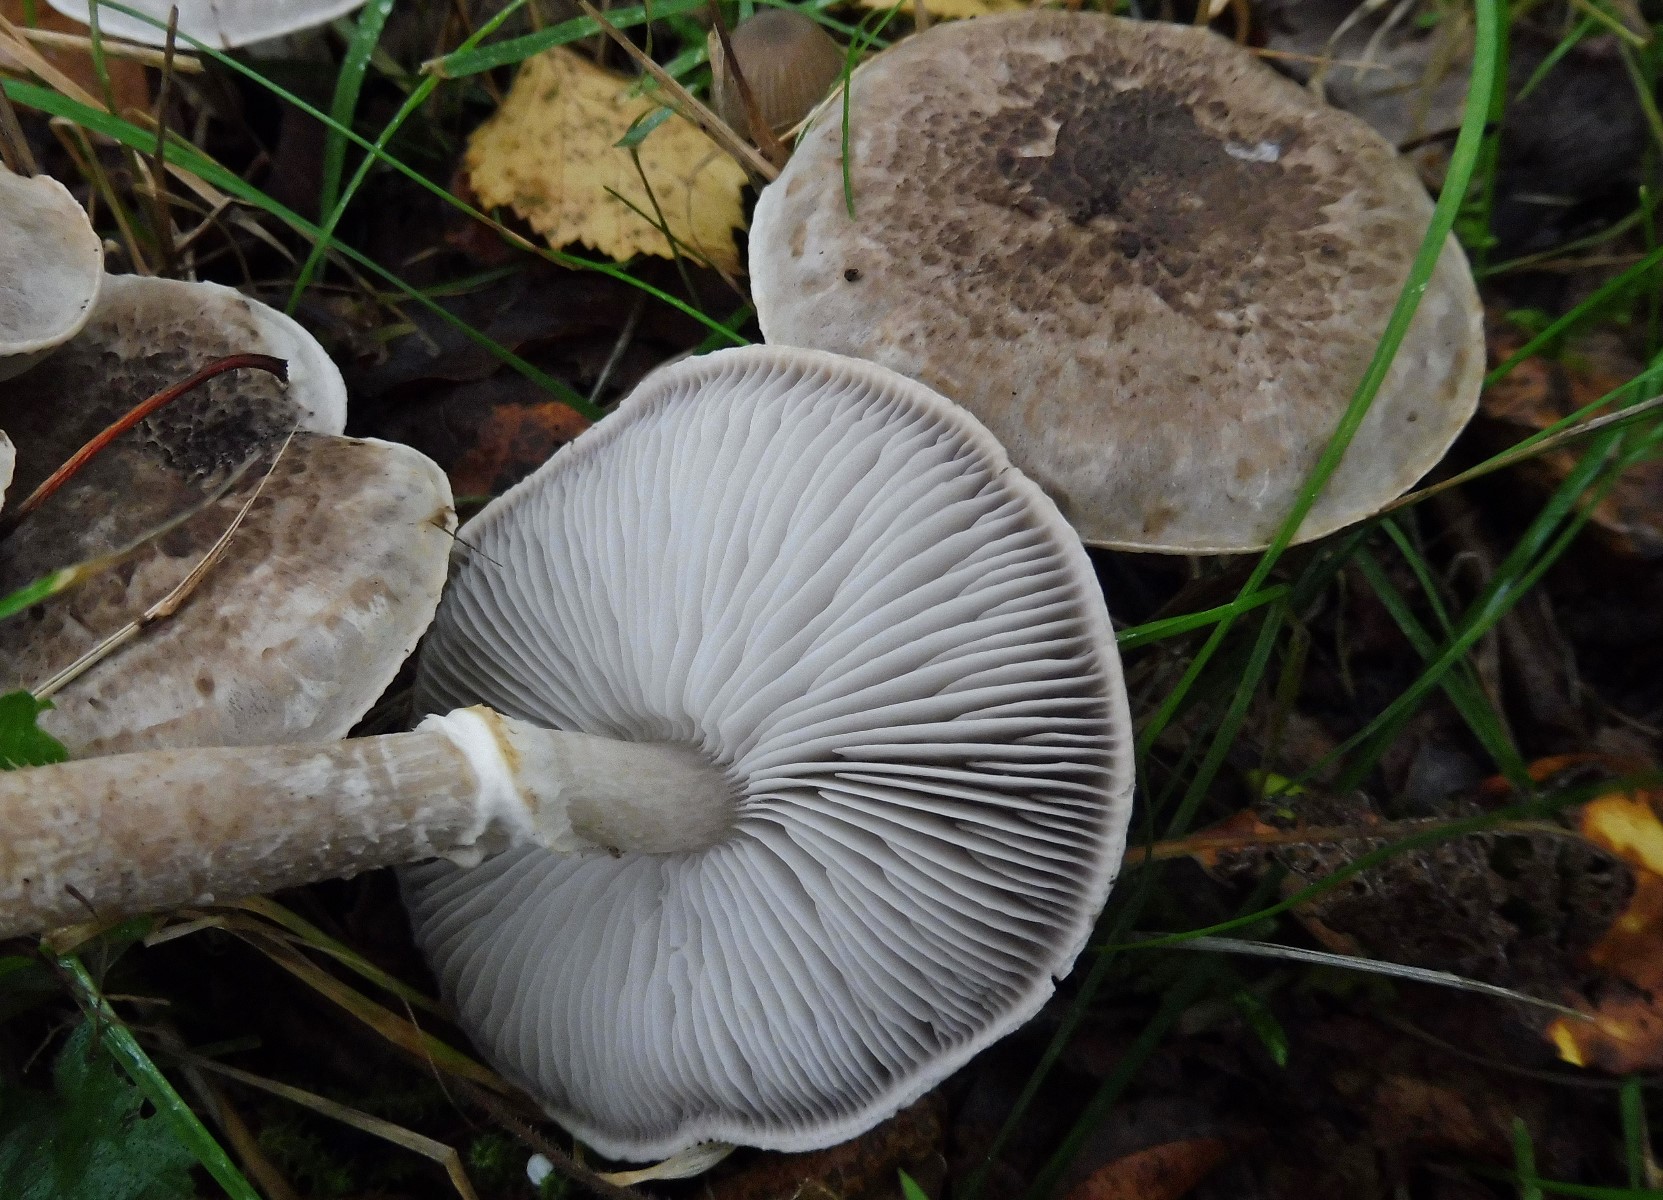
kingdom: Fungi
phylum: Basidiomycota
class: Agaricomycetes
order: Agaricales
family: Tricholomataceae
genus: Tricholoma
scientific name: Tricholoma cingulatum
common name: ring-ridderhat
